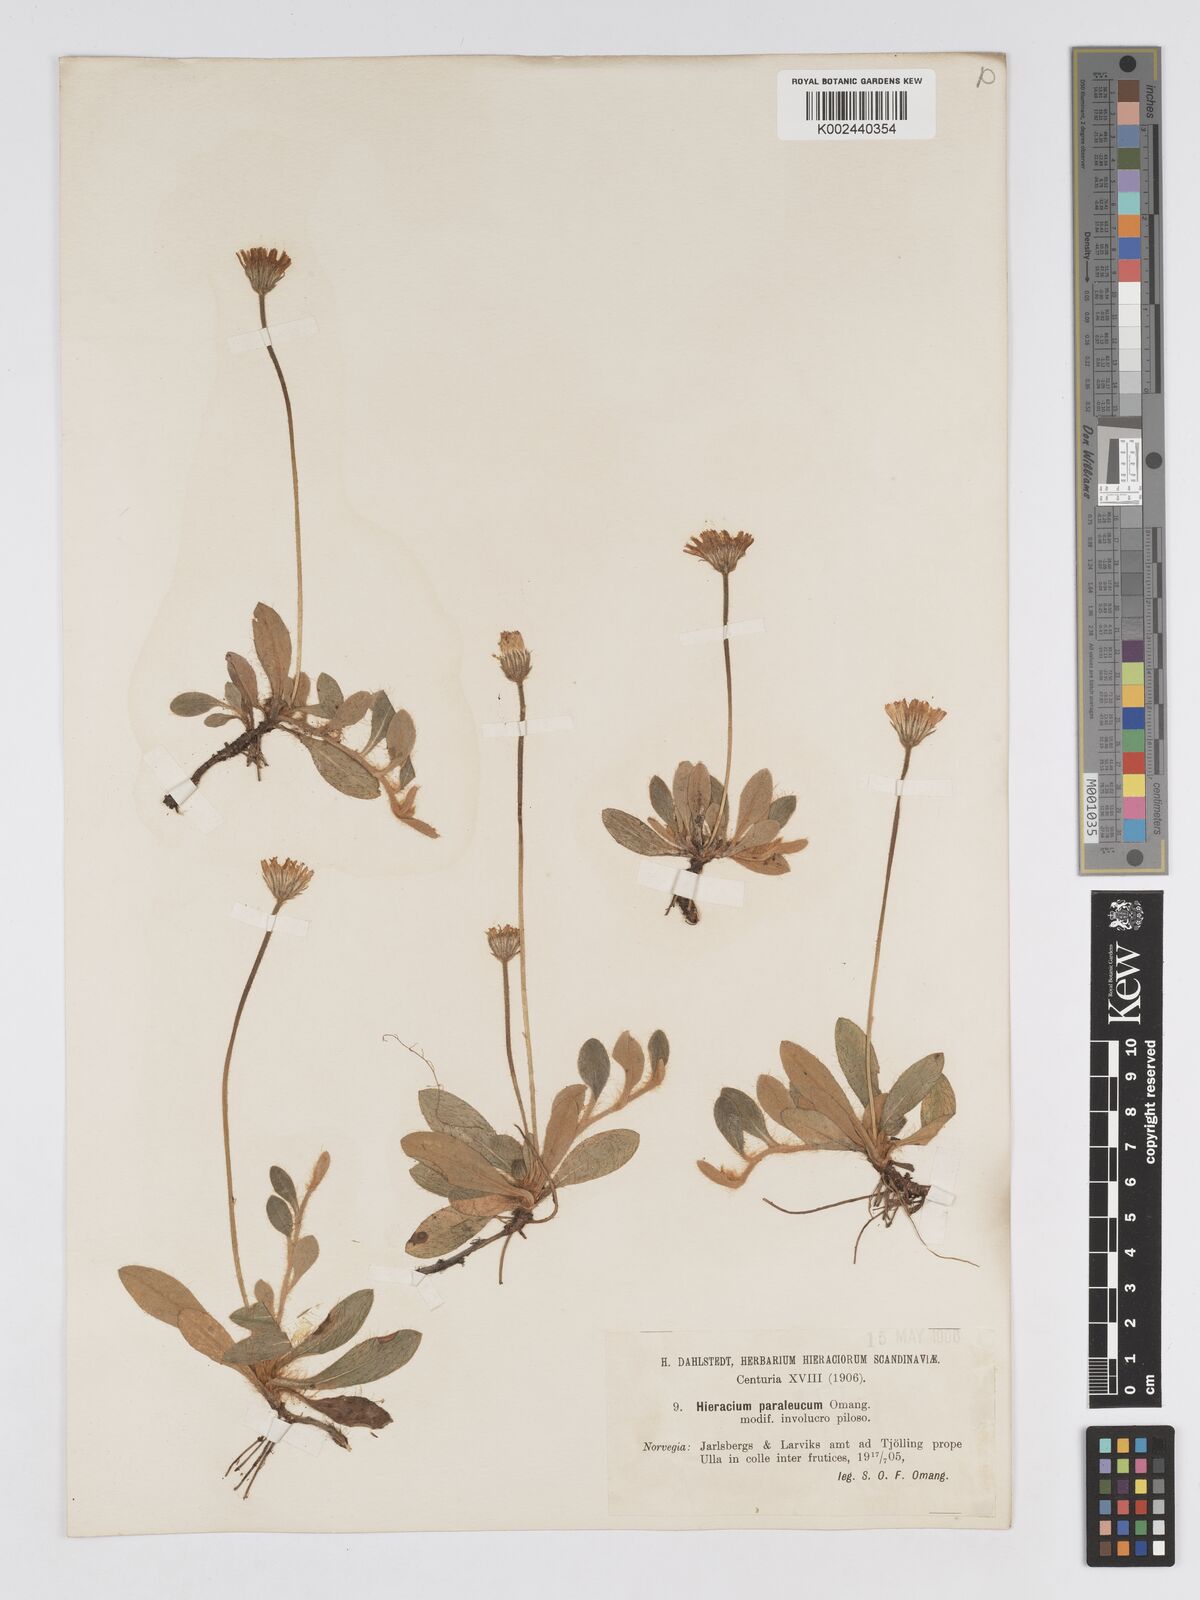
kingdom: Plantae
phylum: Tracheophyta
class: Magnoliopsida
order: Asterales
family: Asteraceae
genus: Pilosella
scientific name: Pilosella officinarum
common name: Mouse-ear hawkweed
